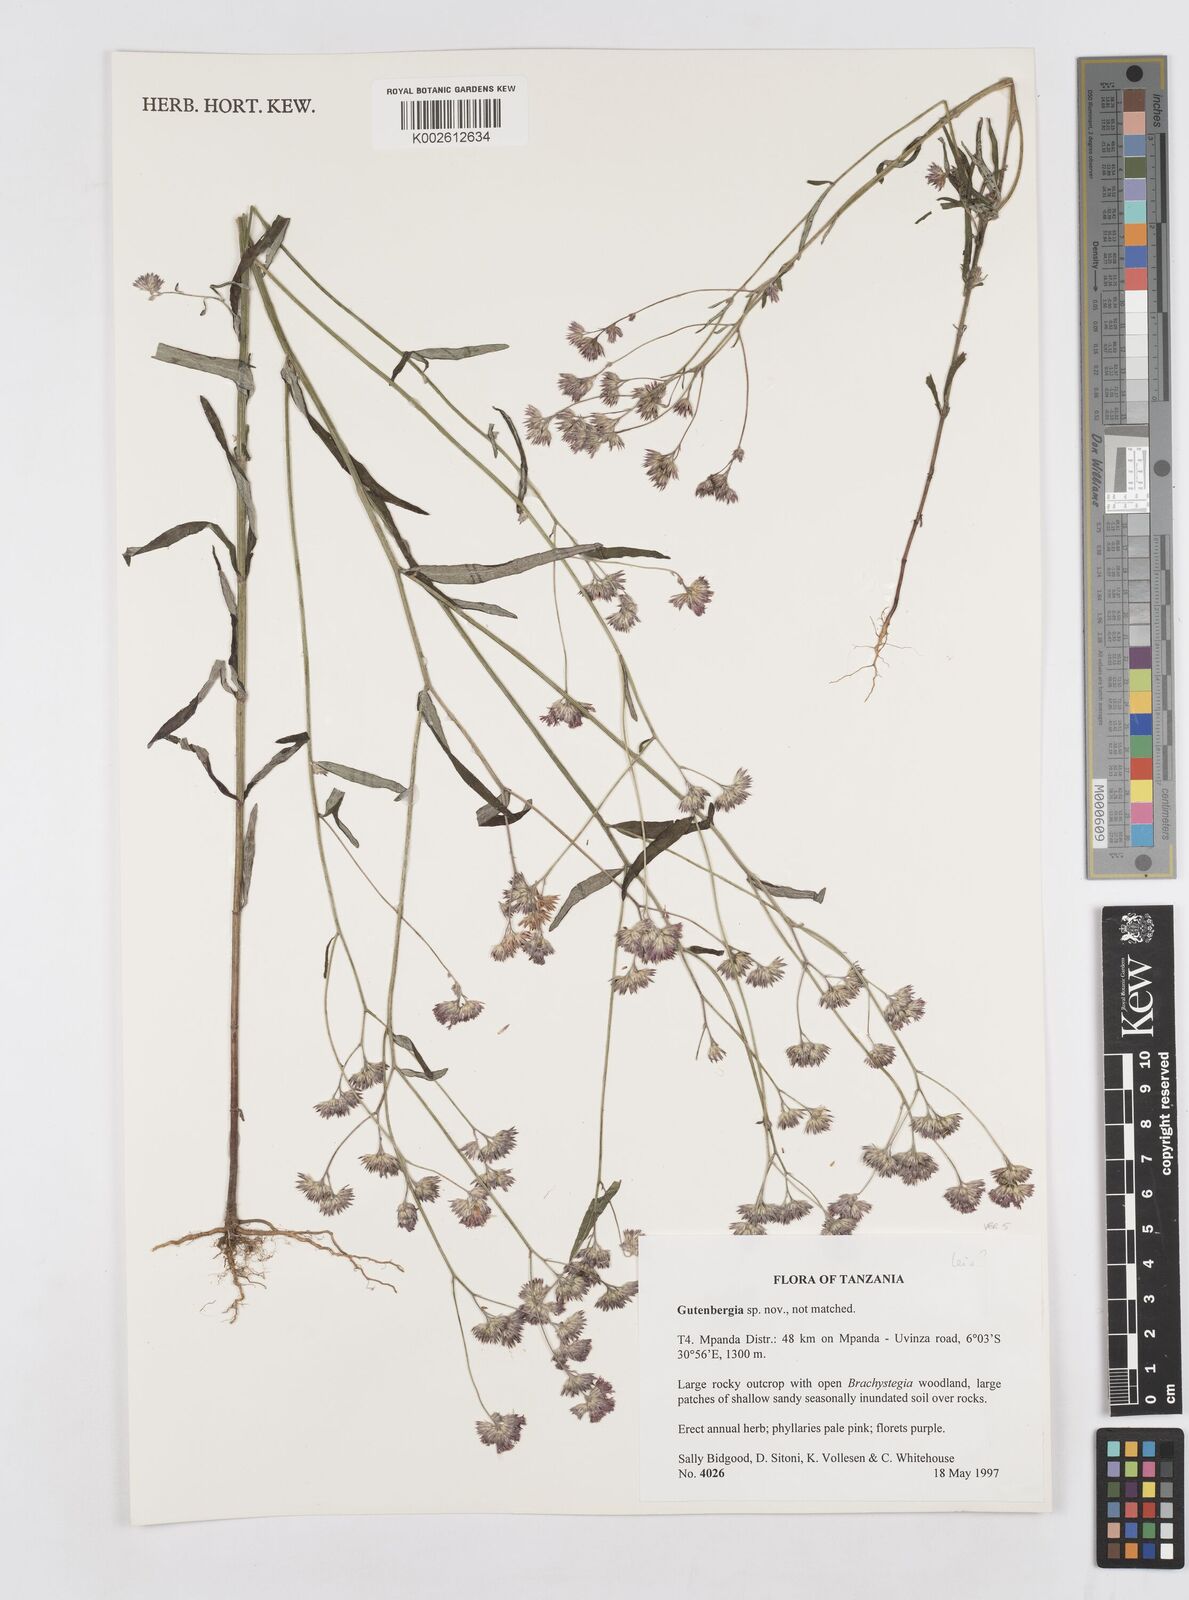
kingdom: Plantae
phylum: Tracheophyta
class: Magnoliopsida
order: Asterales
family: Asteraceae
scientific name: Asteraceae
